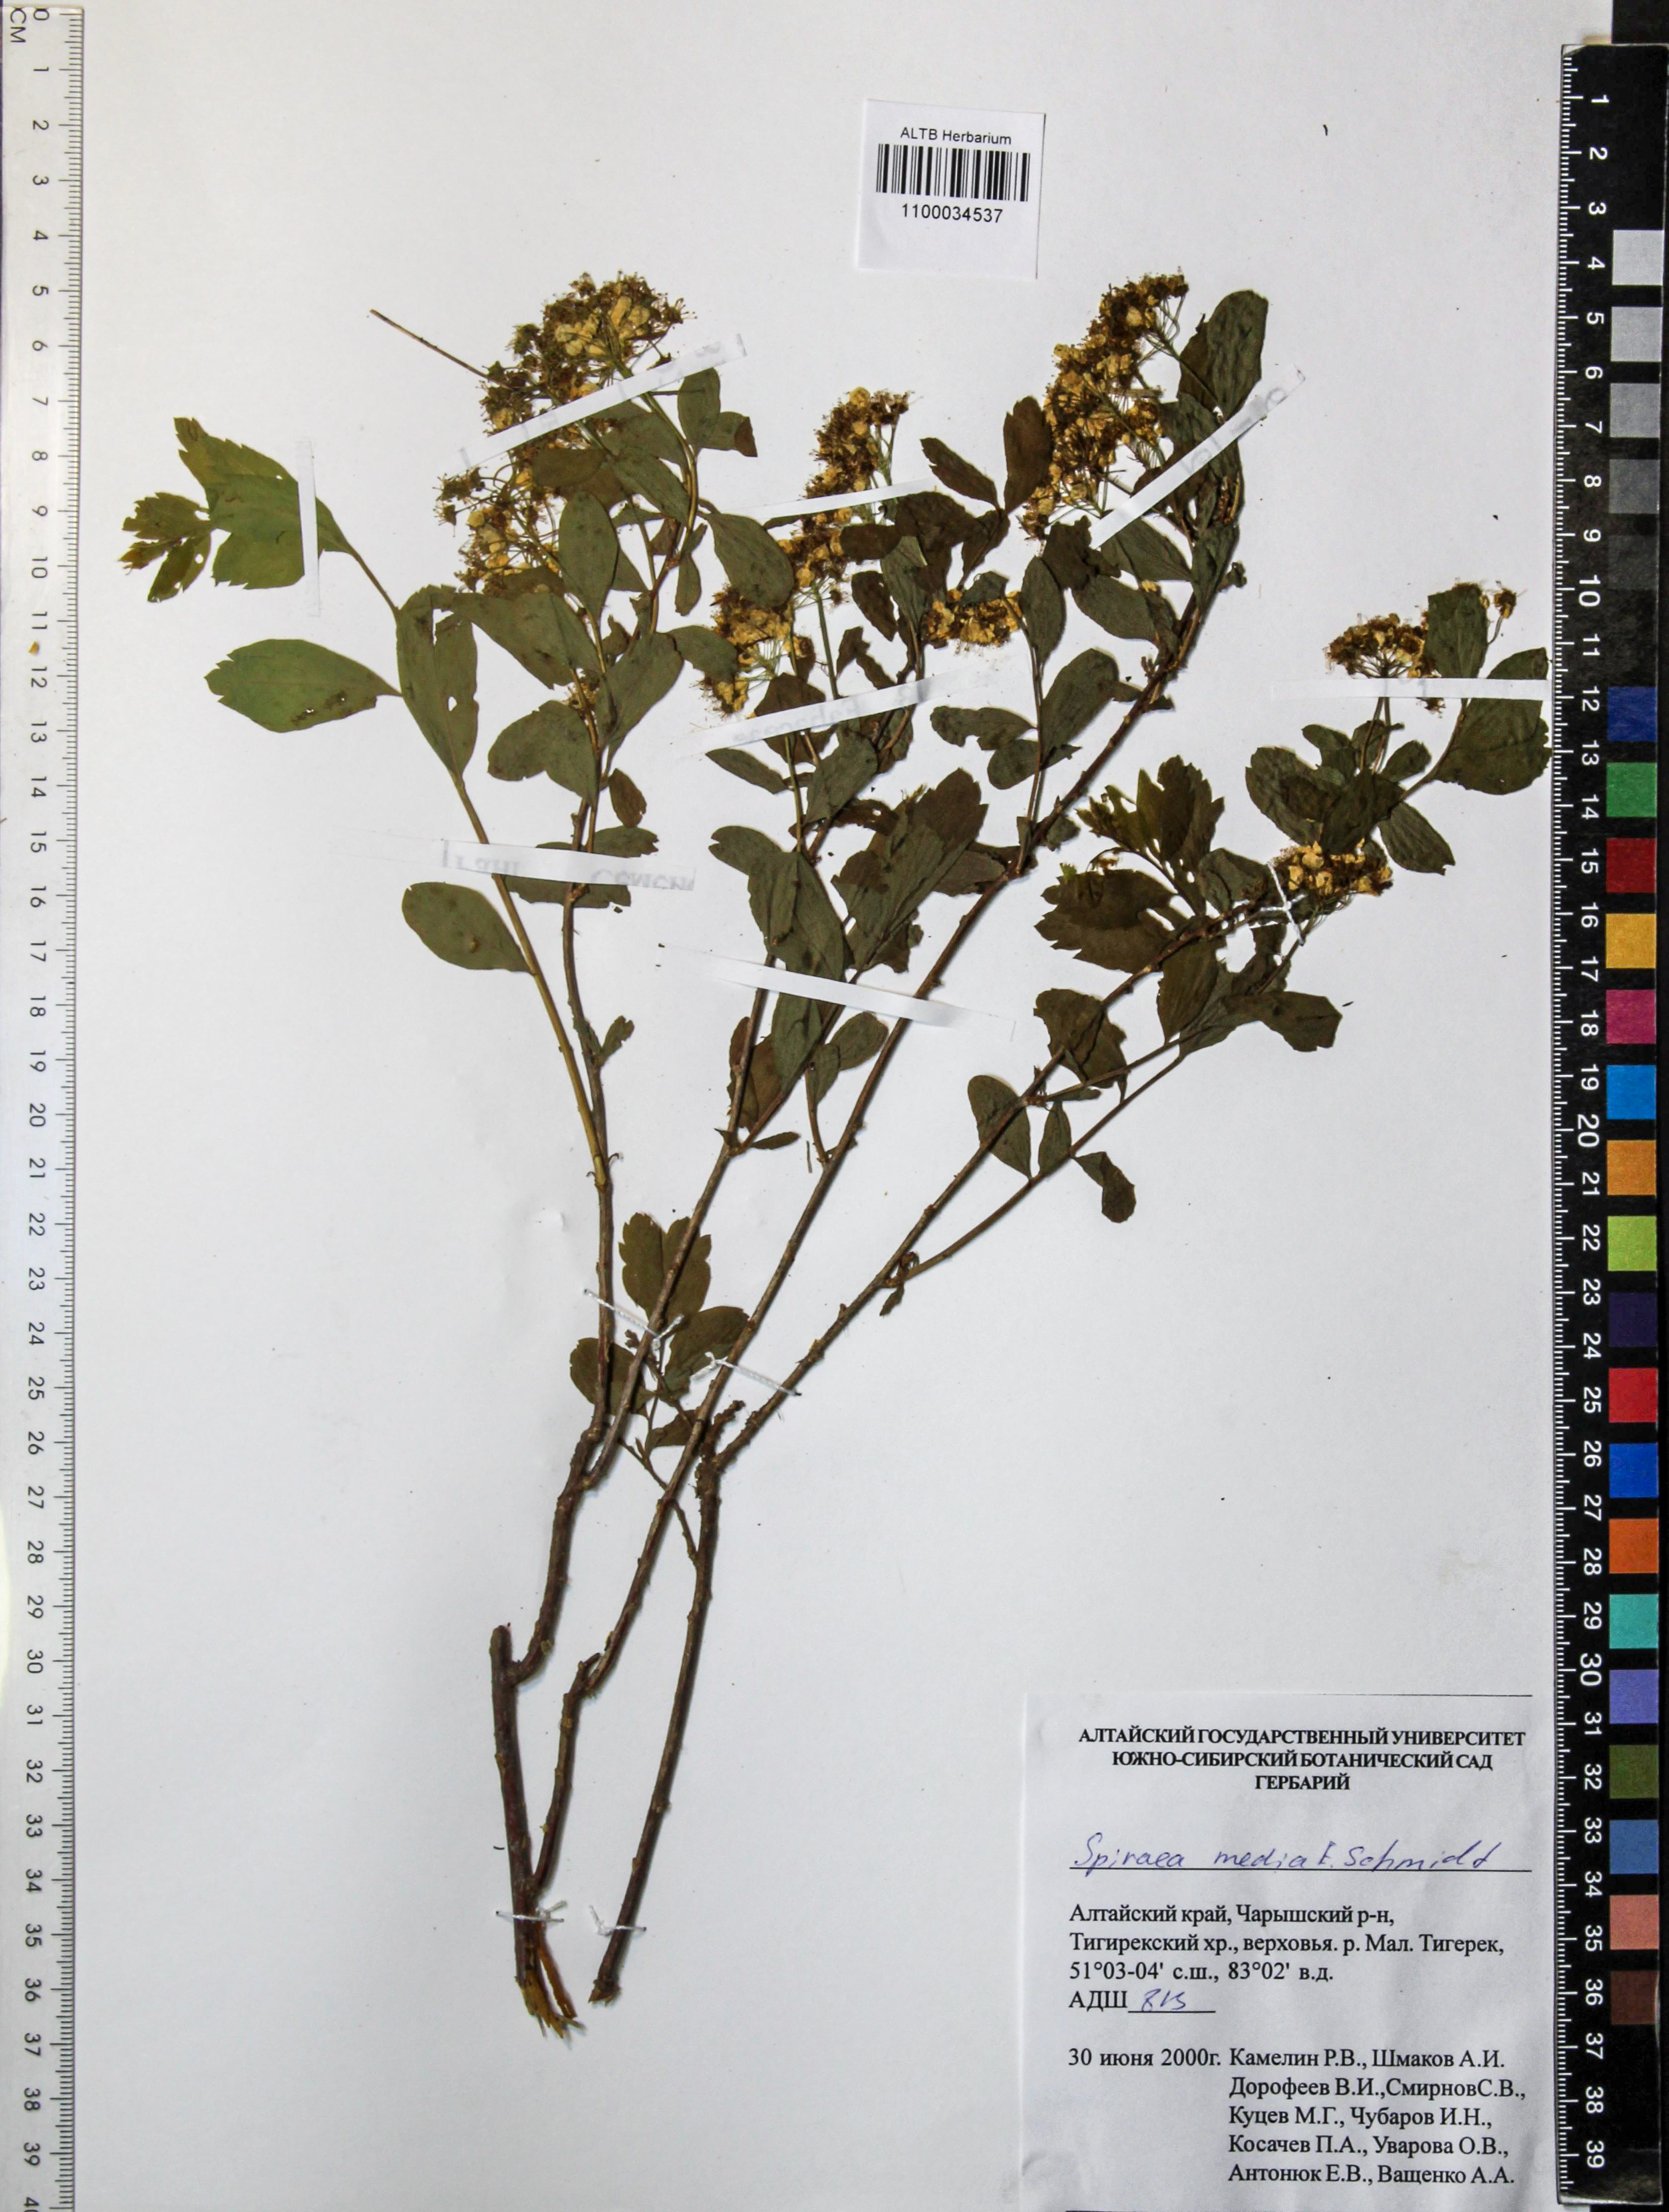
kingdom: Plantae
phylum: Tracheophyta
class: Magnoliopsida
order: Rosales
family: Rosaceae
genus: Spiraea
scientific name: Spiraea media
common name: Russian spiraea
